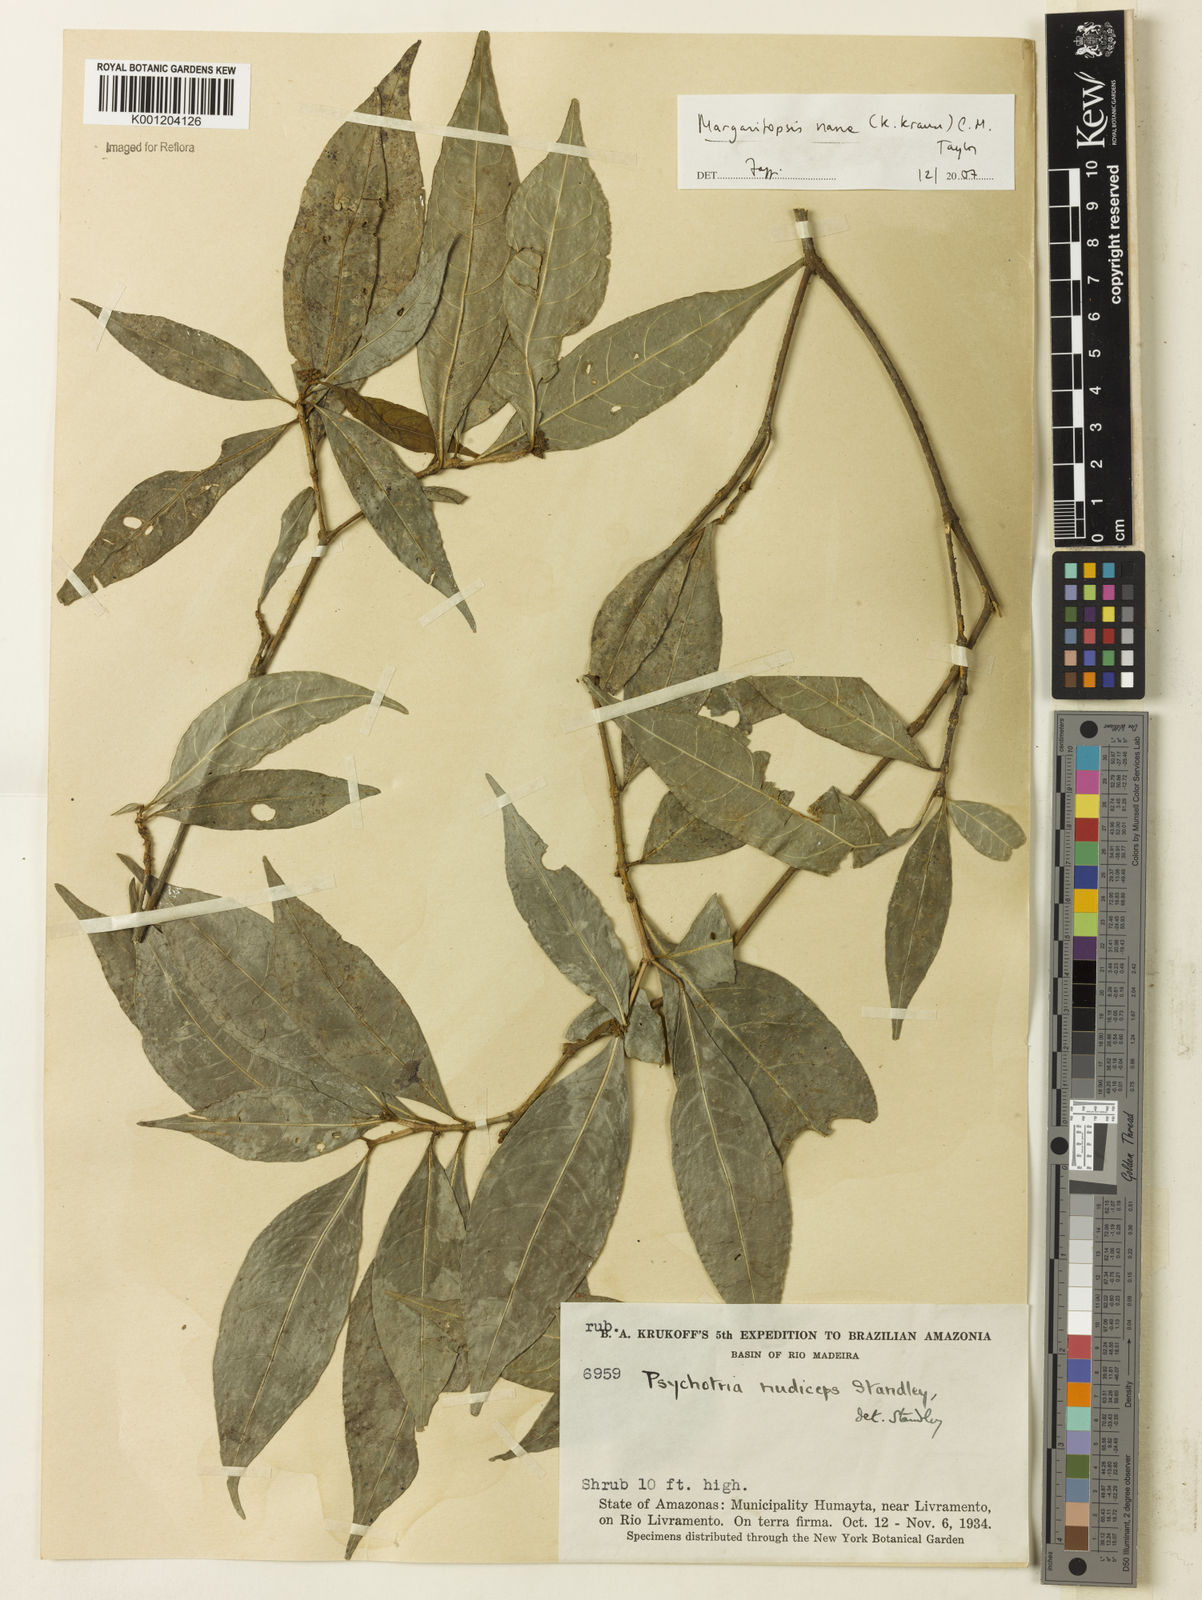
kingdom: Plantae
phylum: Tracheophyta
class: Magnoliopsida
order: Gentianales
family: Rubiaceae
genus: Eumachia
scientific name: Eumachia nana
